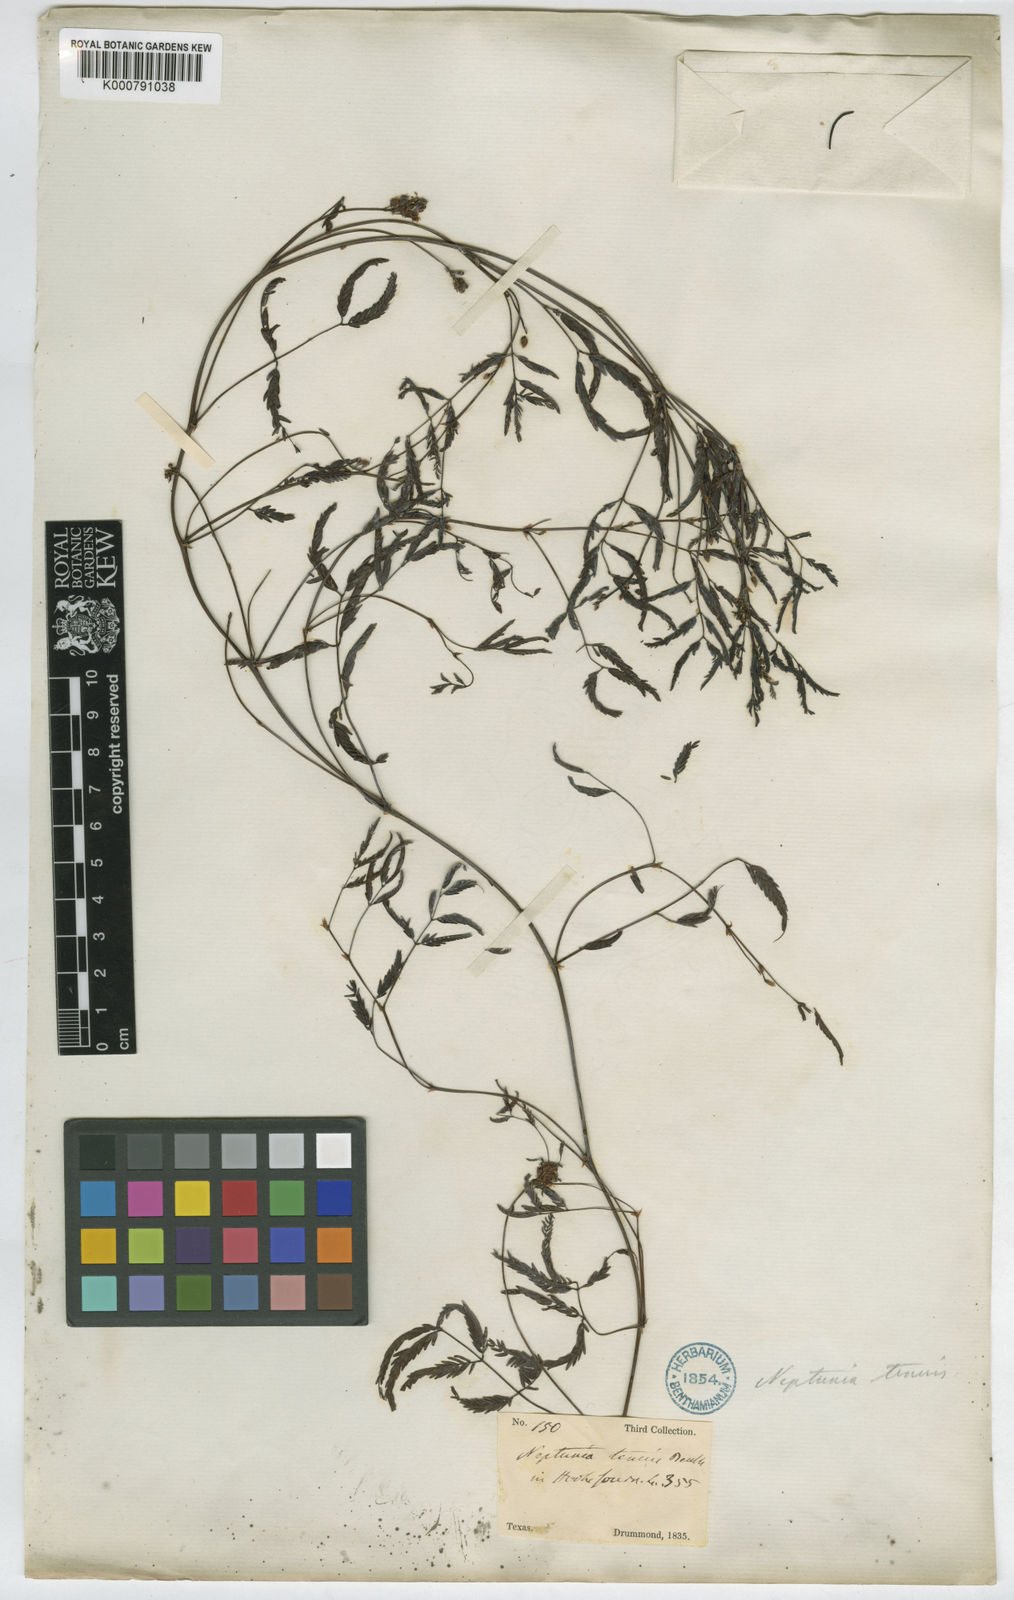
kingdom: Plantae
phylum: Tracheophyta
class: Magnoliopsida
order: Fabales
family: Fabaceae
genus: Neptunia
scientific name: Neptunia lutea
